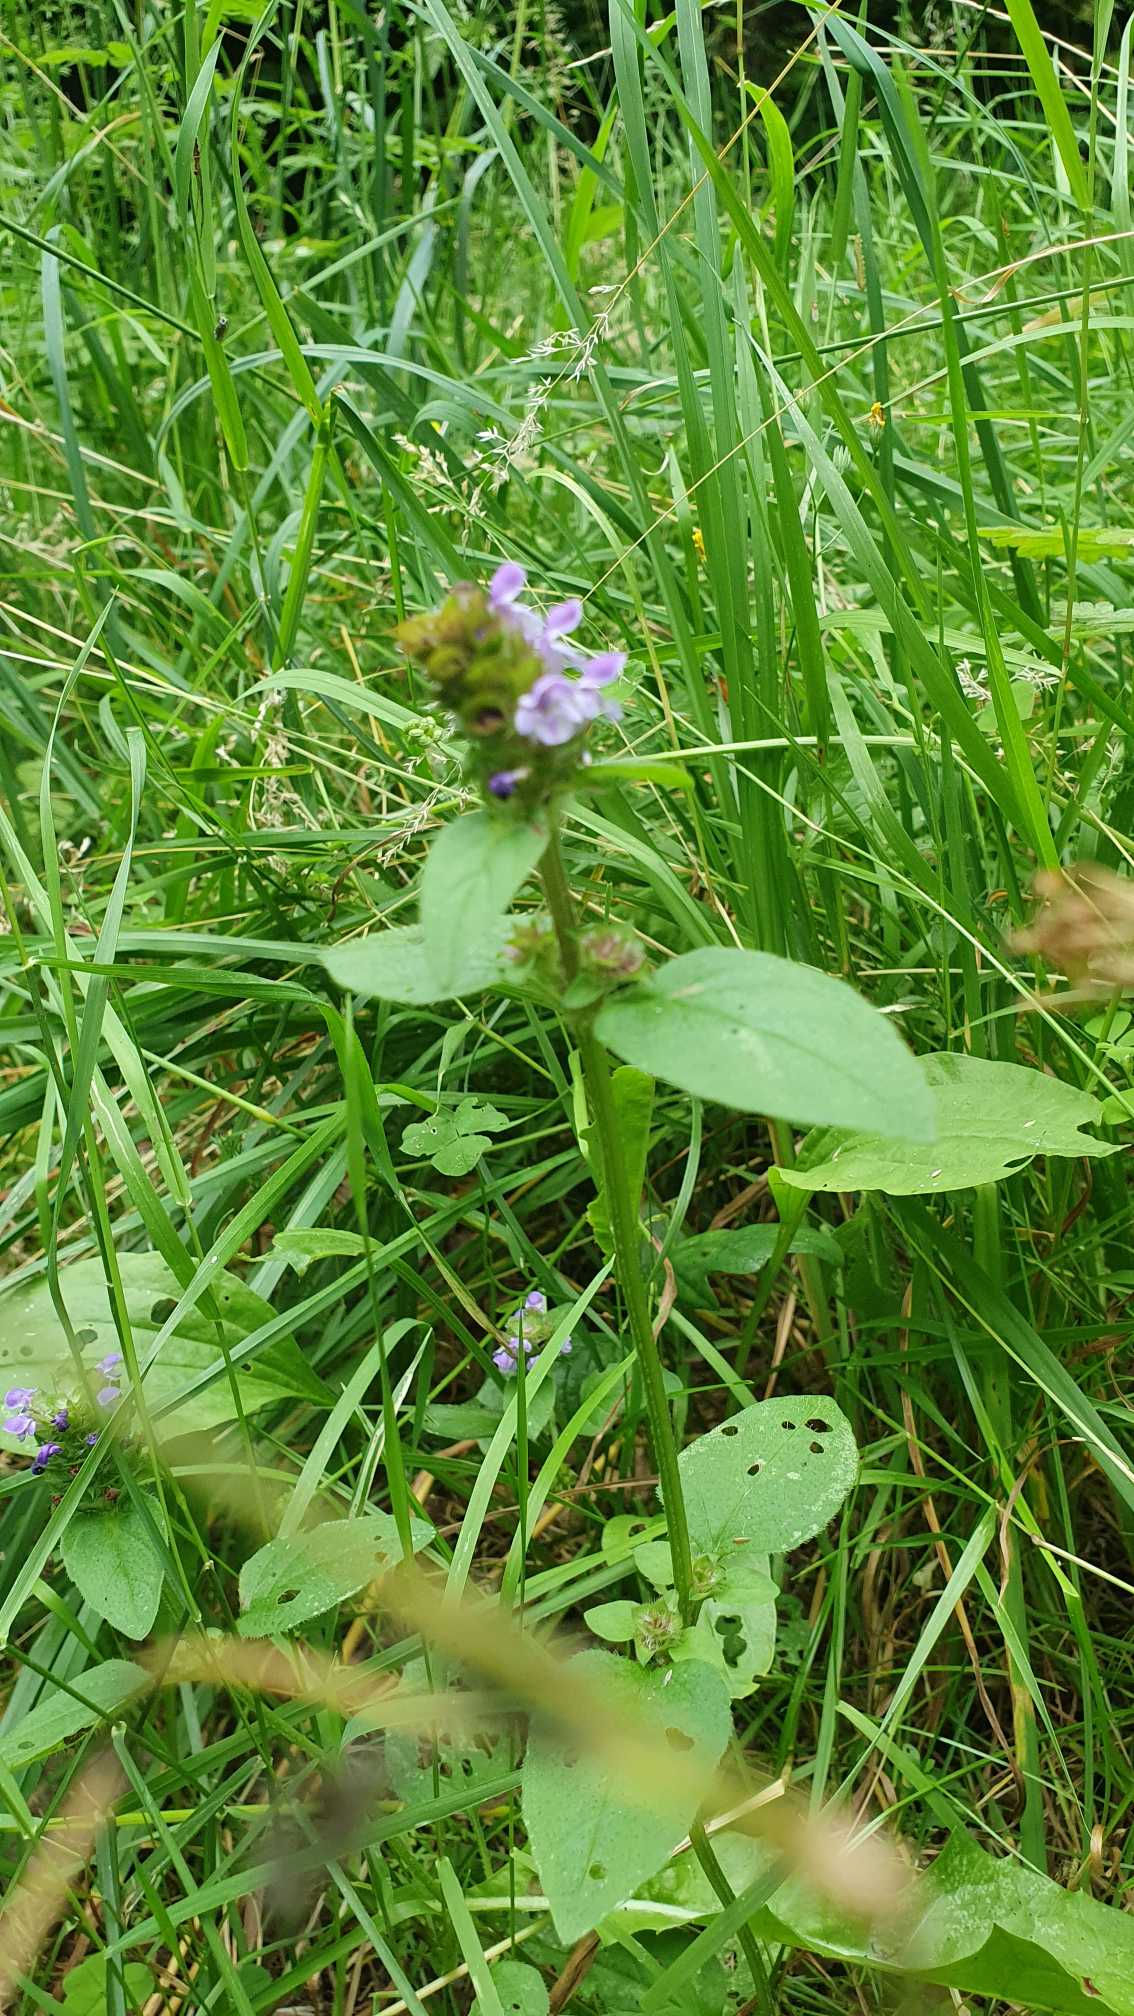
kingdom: Plantae
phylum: Tracheophyta
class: Magnoliopsida
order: Lamiales
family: Lamiaceae
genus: Prunella
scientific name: Prunella vulgaris
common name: Almindelig brunelle
